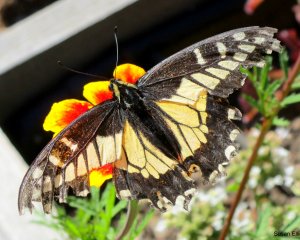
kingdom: Animalia
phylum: Arthropoda
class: Insecta
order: Lepidoptera
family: Papilionidae
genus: Papilio
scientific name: Papilio zelicaon
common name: Anise Swallowtail
